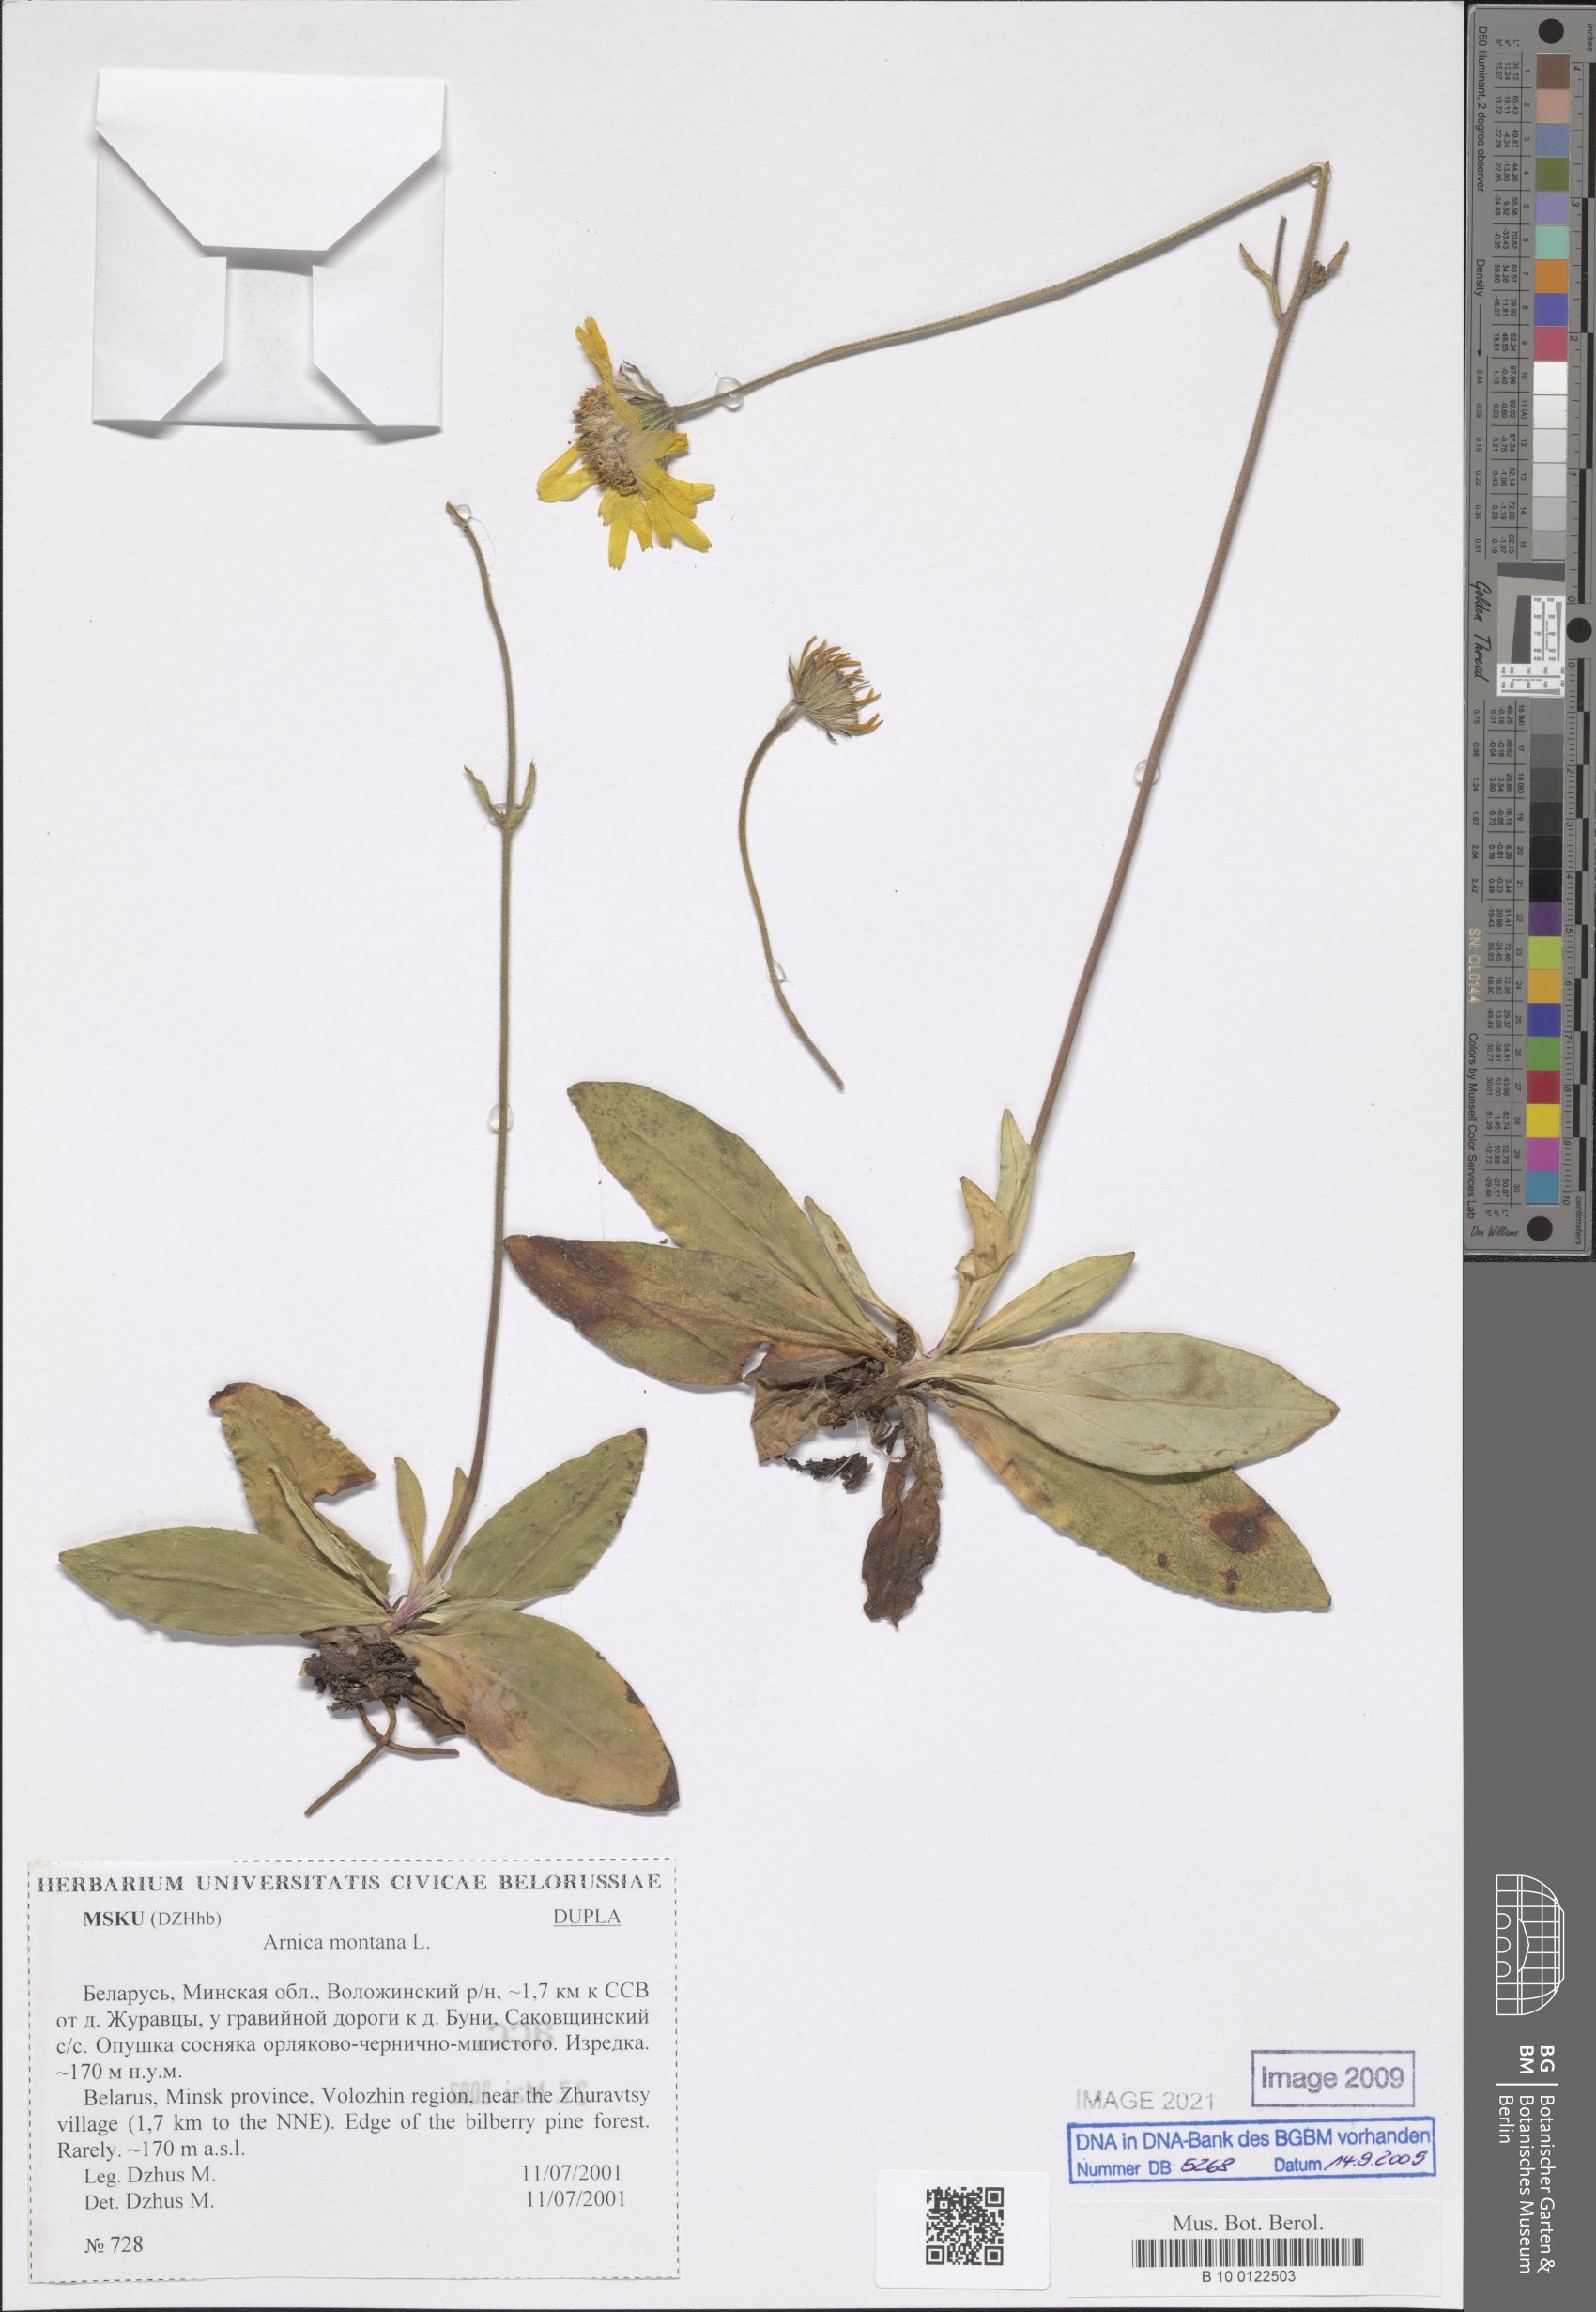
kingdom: Plantae
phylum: Tracheophyta
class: Magnoliopsida
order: Asterales
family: Asteraceae
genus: Arnica
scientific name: Arnica montana
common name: Leopard's bane
